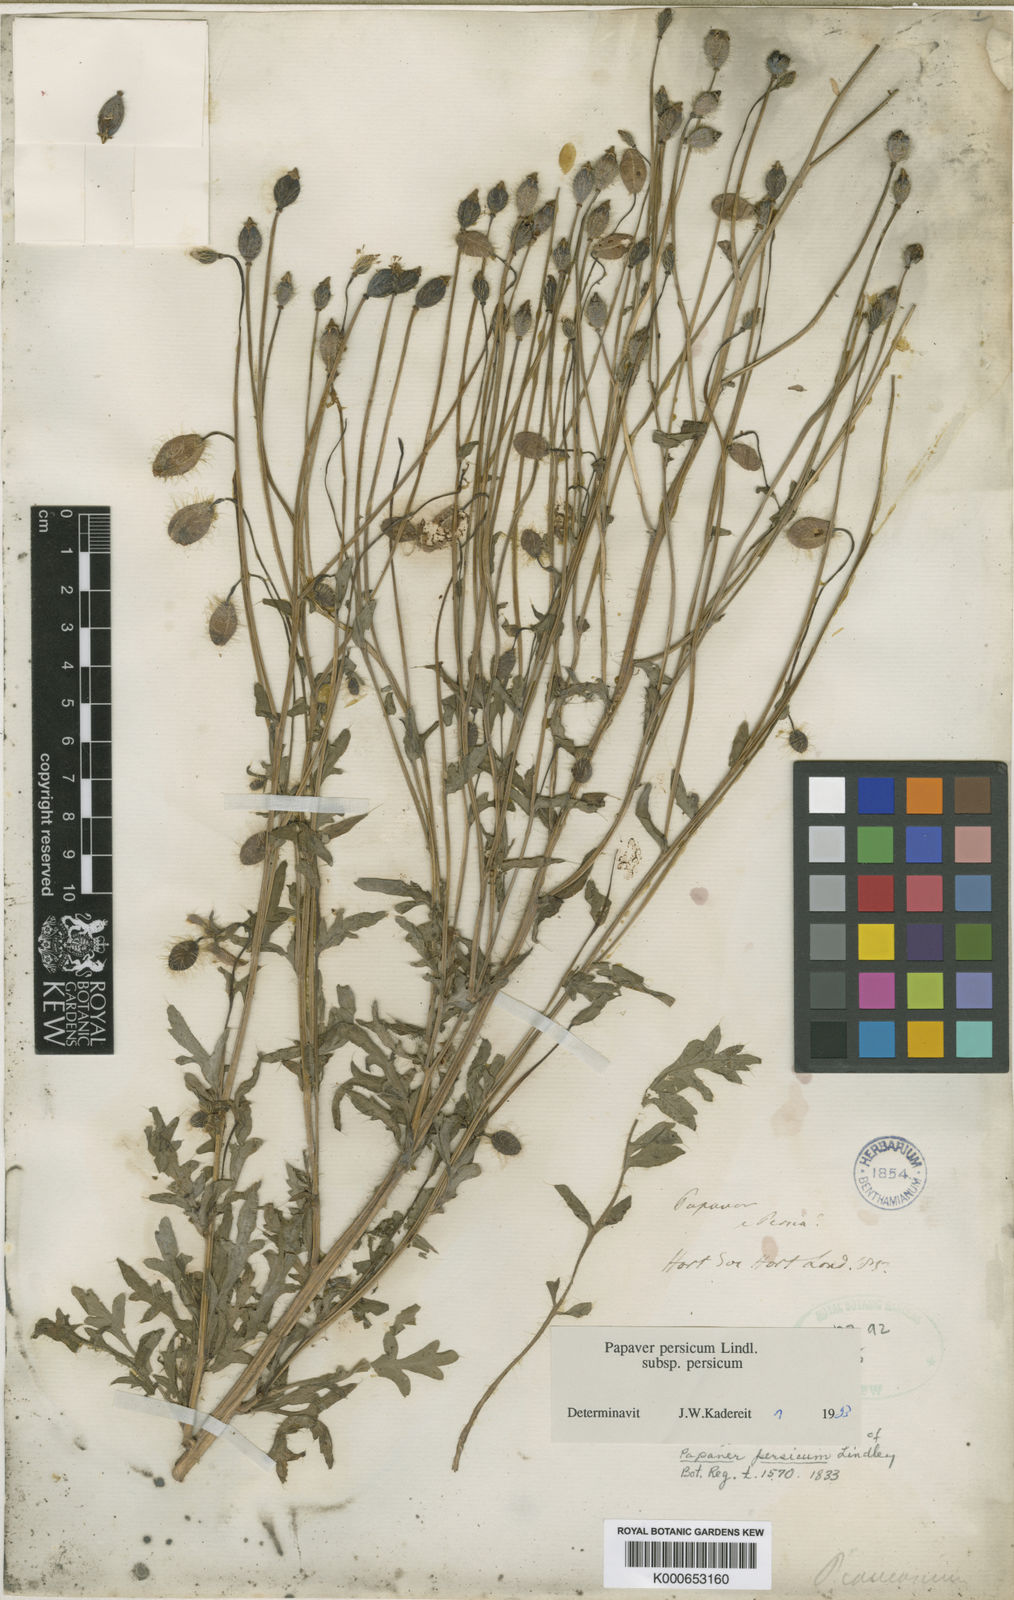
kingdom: Plantae
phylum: Tracheophyta
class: Magnoliopsida
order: Ranunculales
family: Papaveraceae
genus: Papaver
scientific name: Papaver persicum
